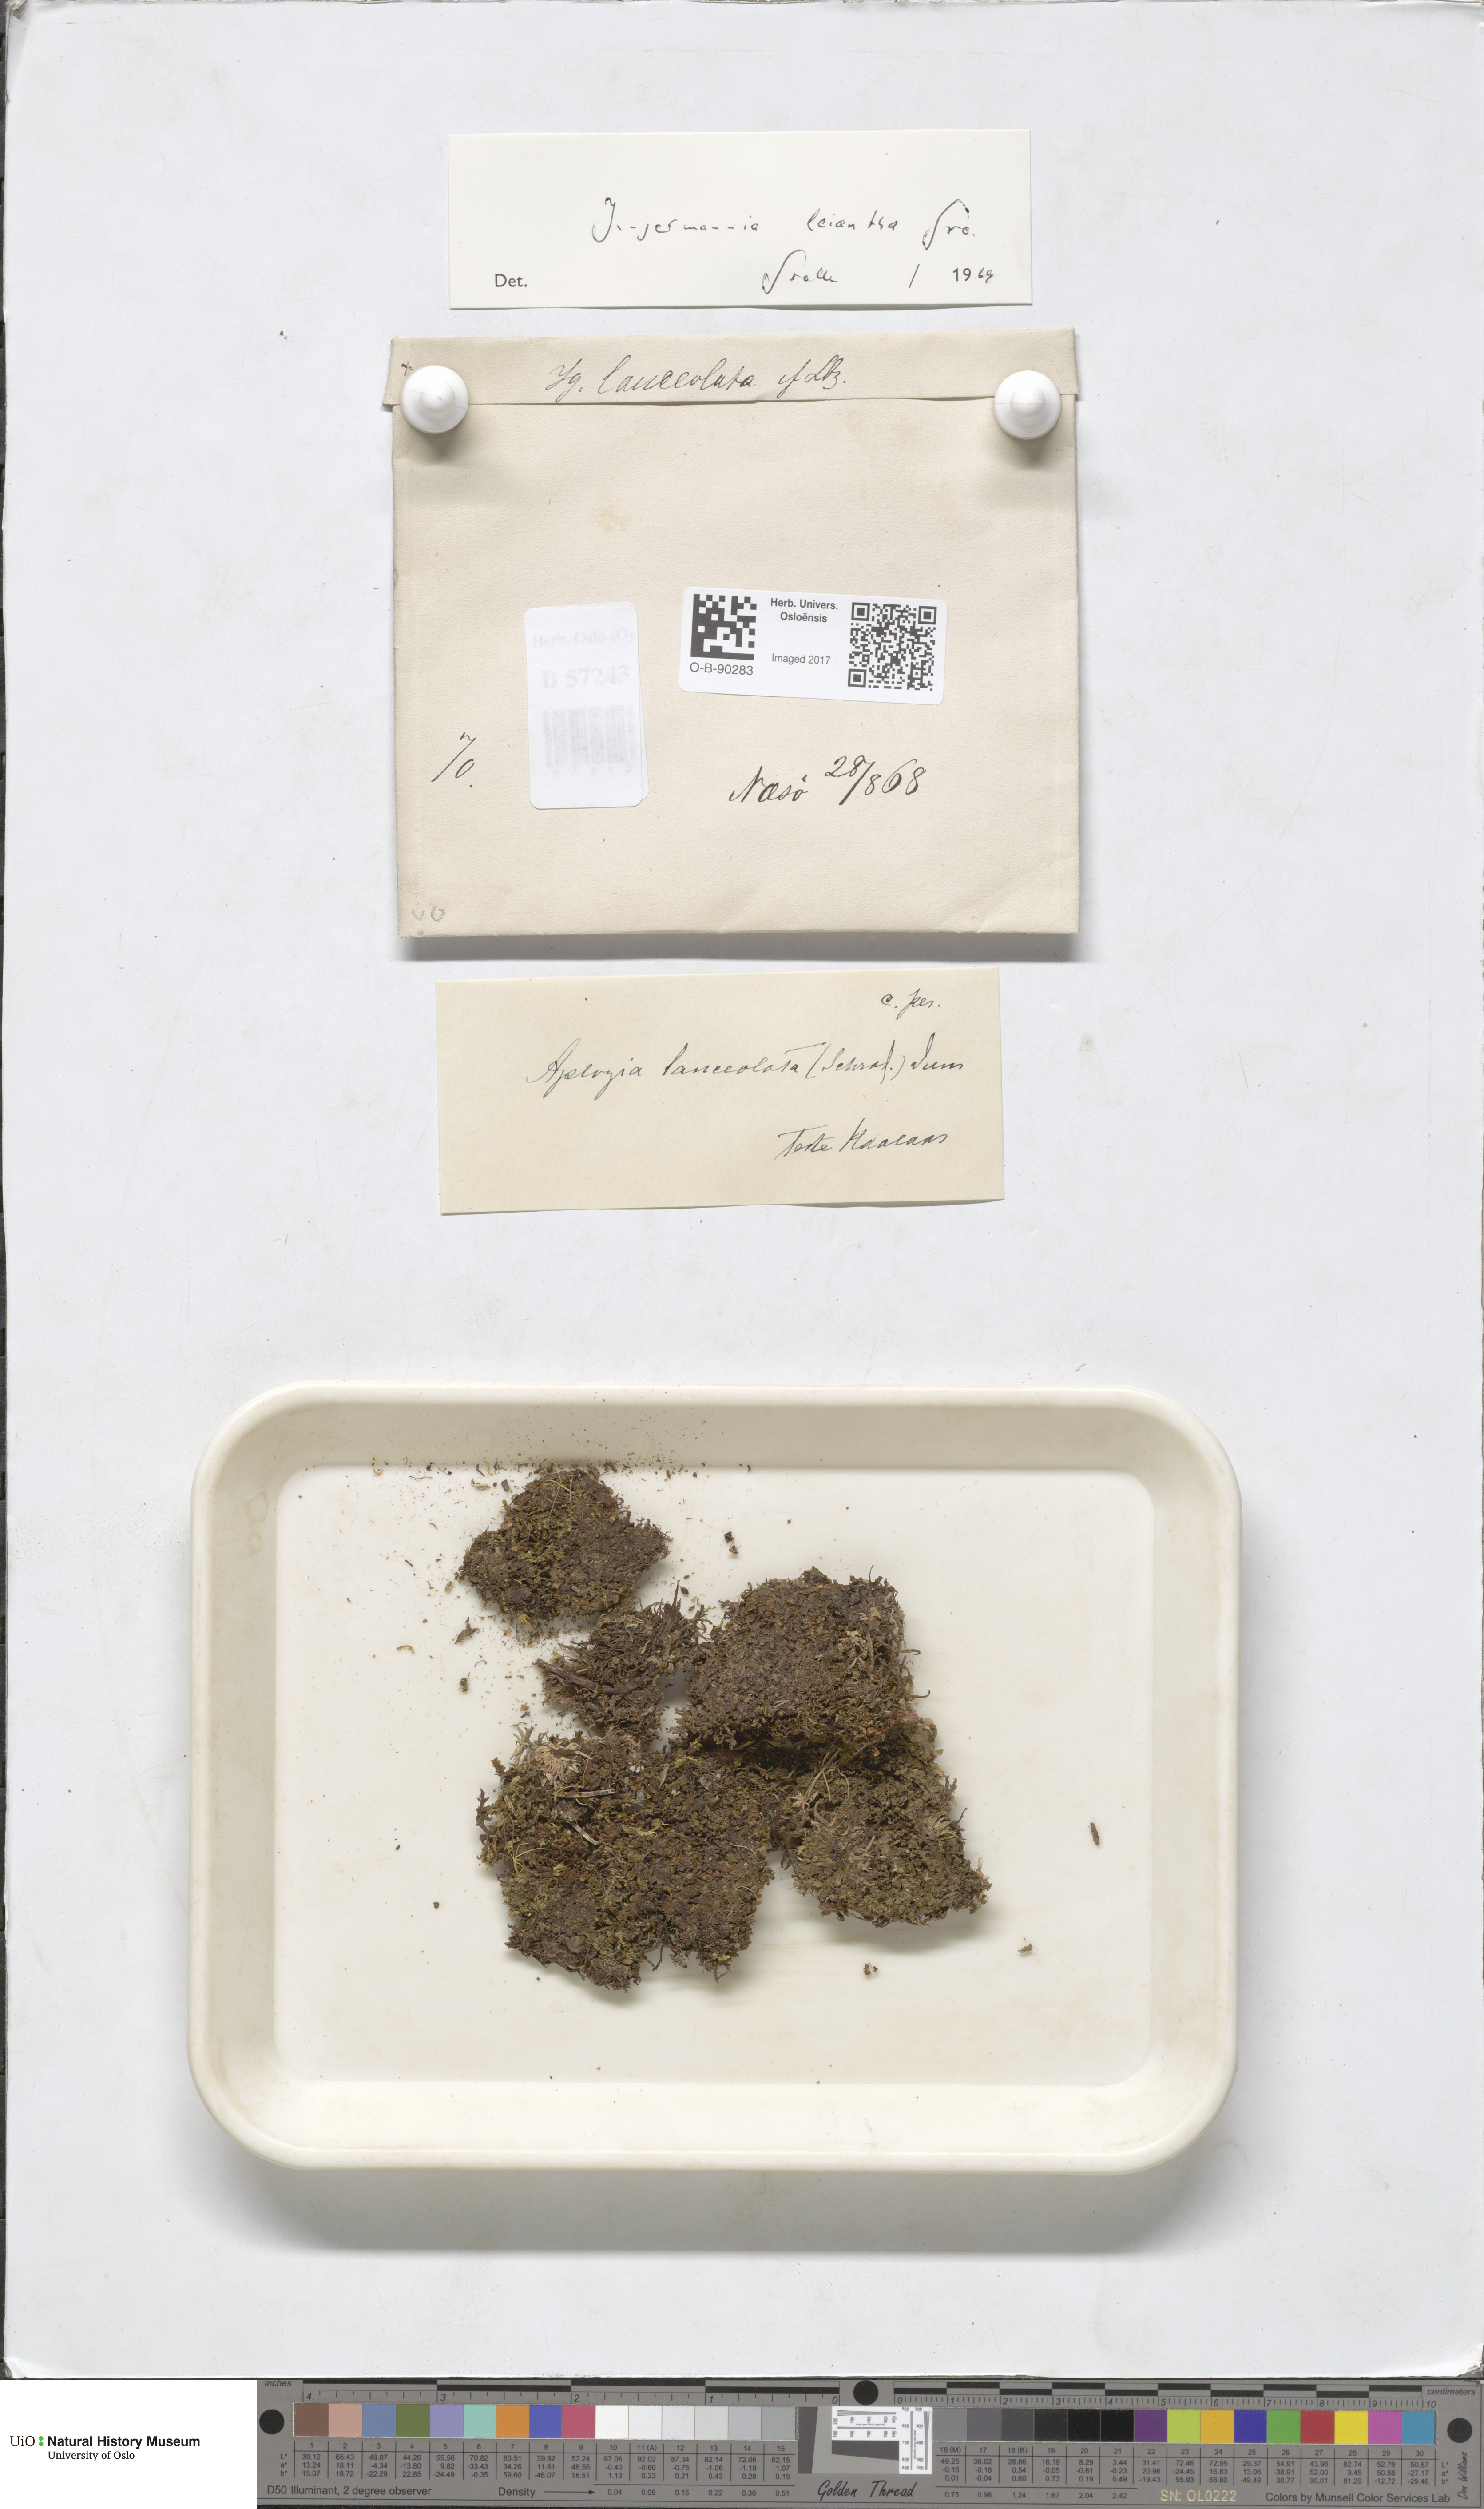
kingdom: Plantae
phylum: Marchantiophyta
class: Jungermanniopsida
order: Jungermanniales
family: Jungermanniaceae
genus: Liochlaena
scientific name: Liochlaena lanceolata
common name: Long-leaved flapwort
